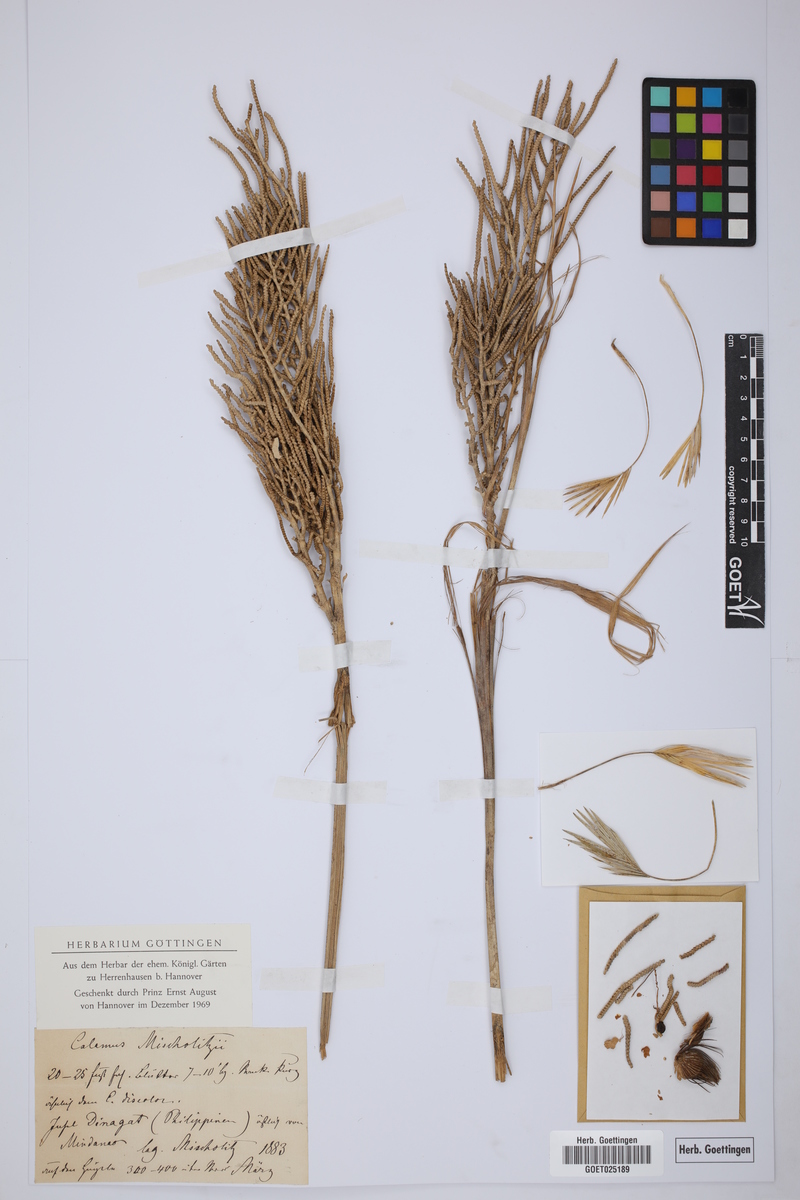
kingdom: Plantae
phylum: Tracheophyta
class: Liliopsida
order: Arecales
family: Arecaceae
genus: Calamus
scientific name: Calamus
